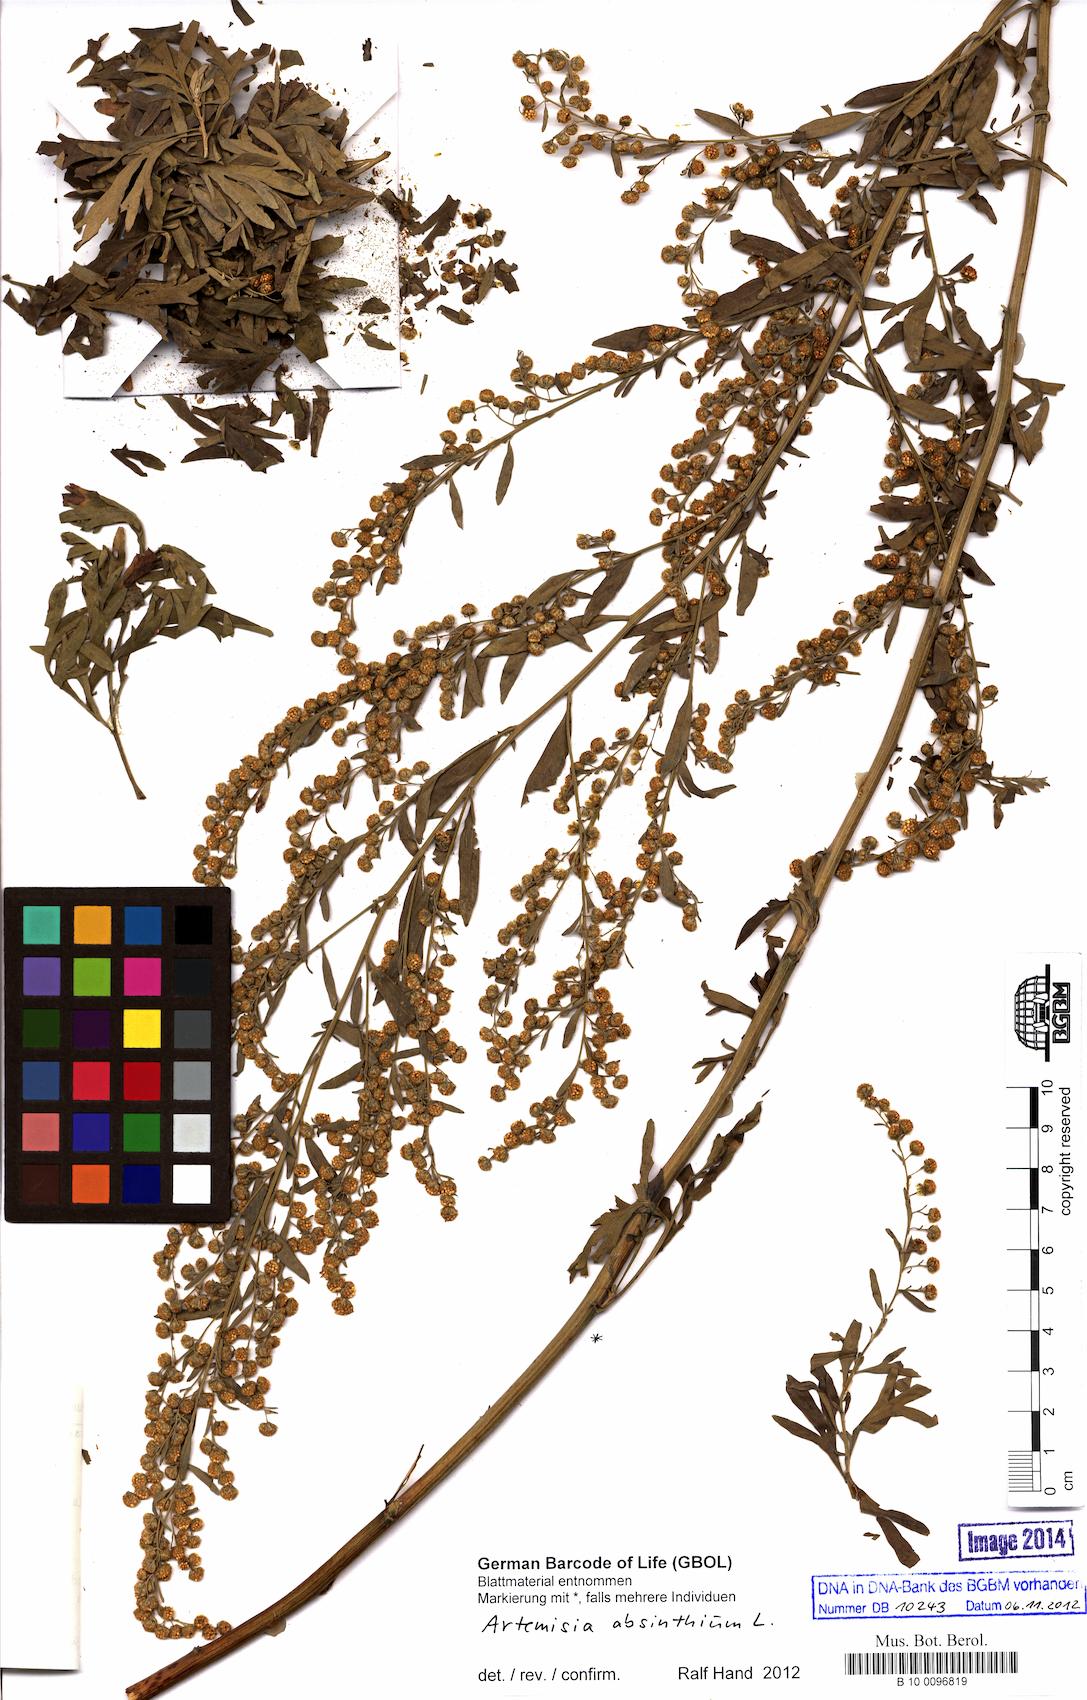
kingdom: Plantae
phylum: Tracheophyta
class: Magnoliopsida
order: Asterales
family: Asteraceae
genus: Artemisia
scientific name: Artemisia absinthium
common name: Wormwood
